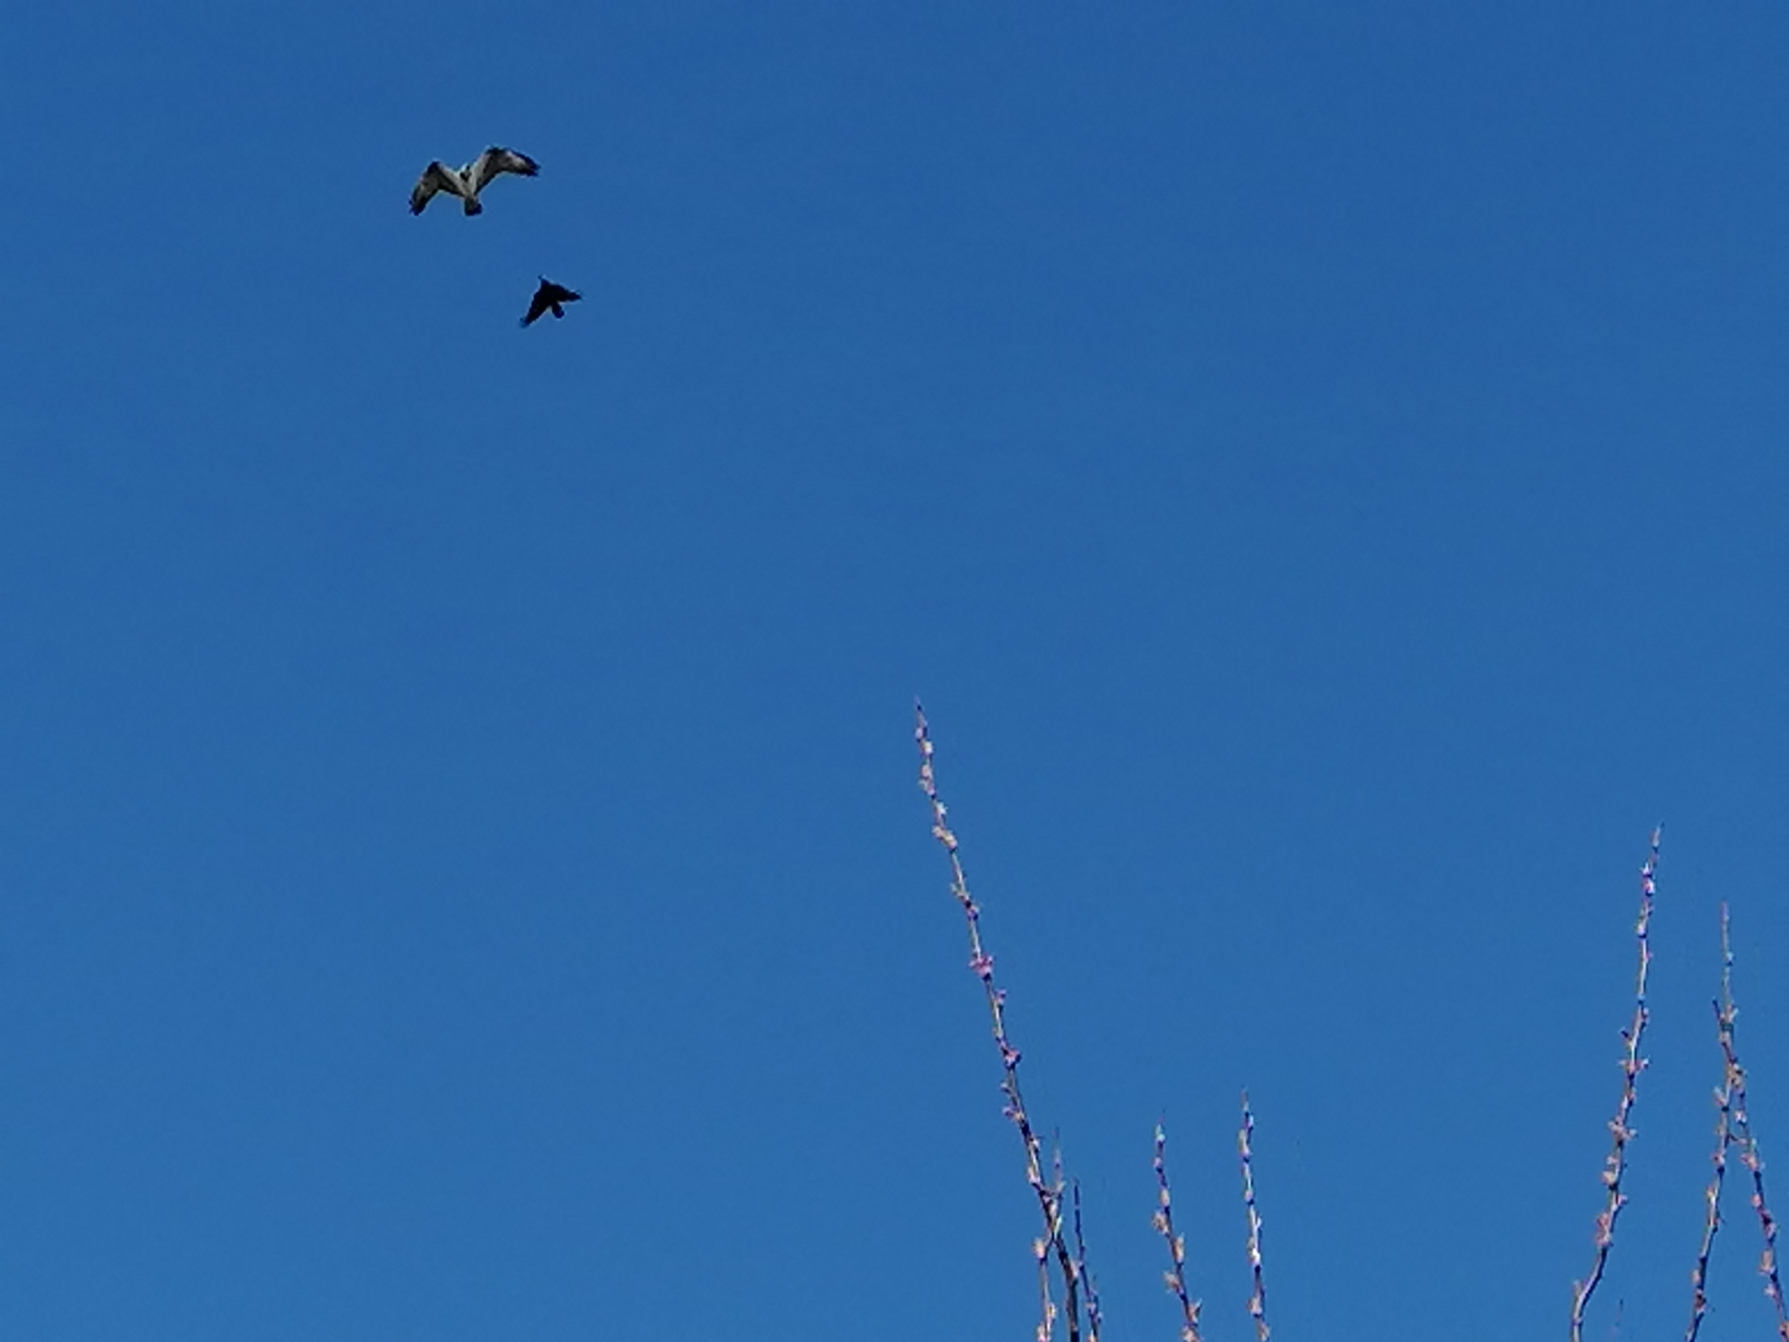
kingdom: Animalia
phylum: Chordata
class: Aves
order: Accipitriformes
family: Pandionidae
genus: Pandion
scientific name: Pandion haliaetus
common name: Fiskeørn
